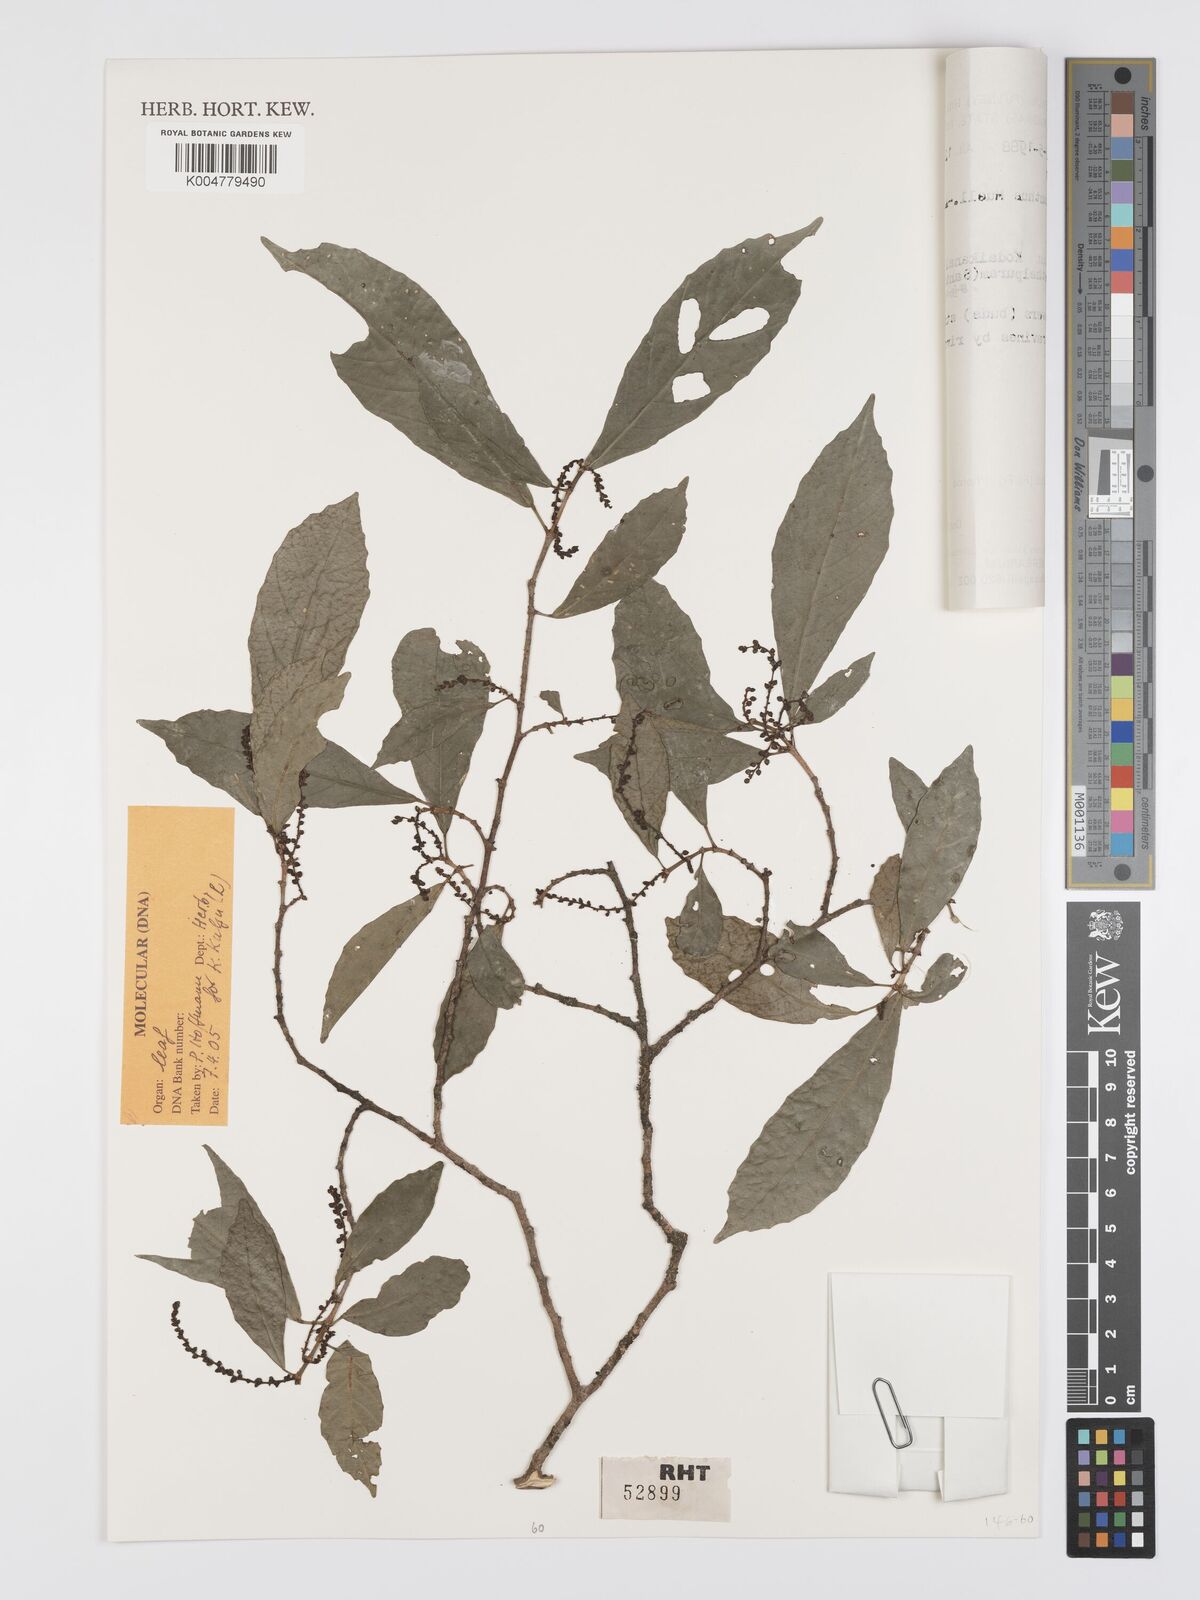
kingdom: Plantae
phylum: Tracheophyta
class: Magnoliopsida
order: Malpighiales
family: Euphorbiaceae
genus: Mallotus
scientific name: Mallotus resinosus
